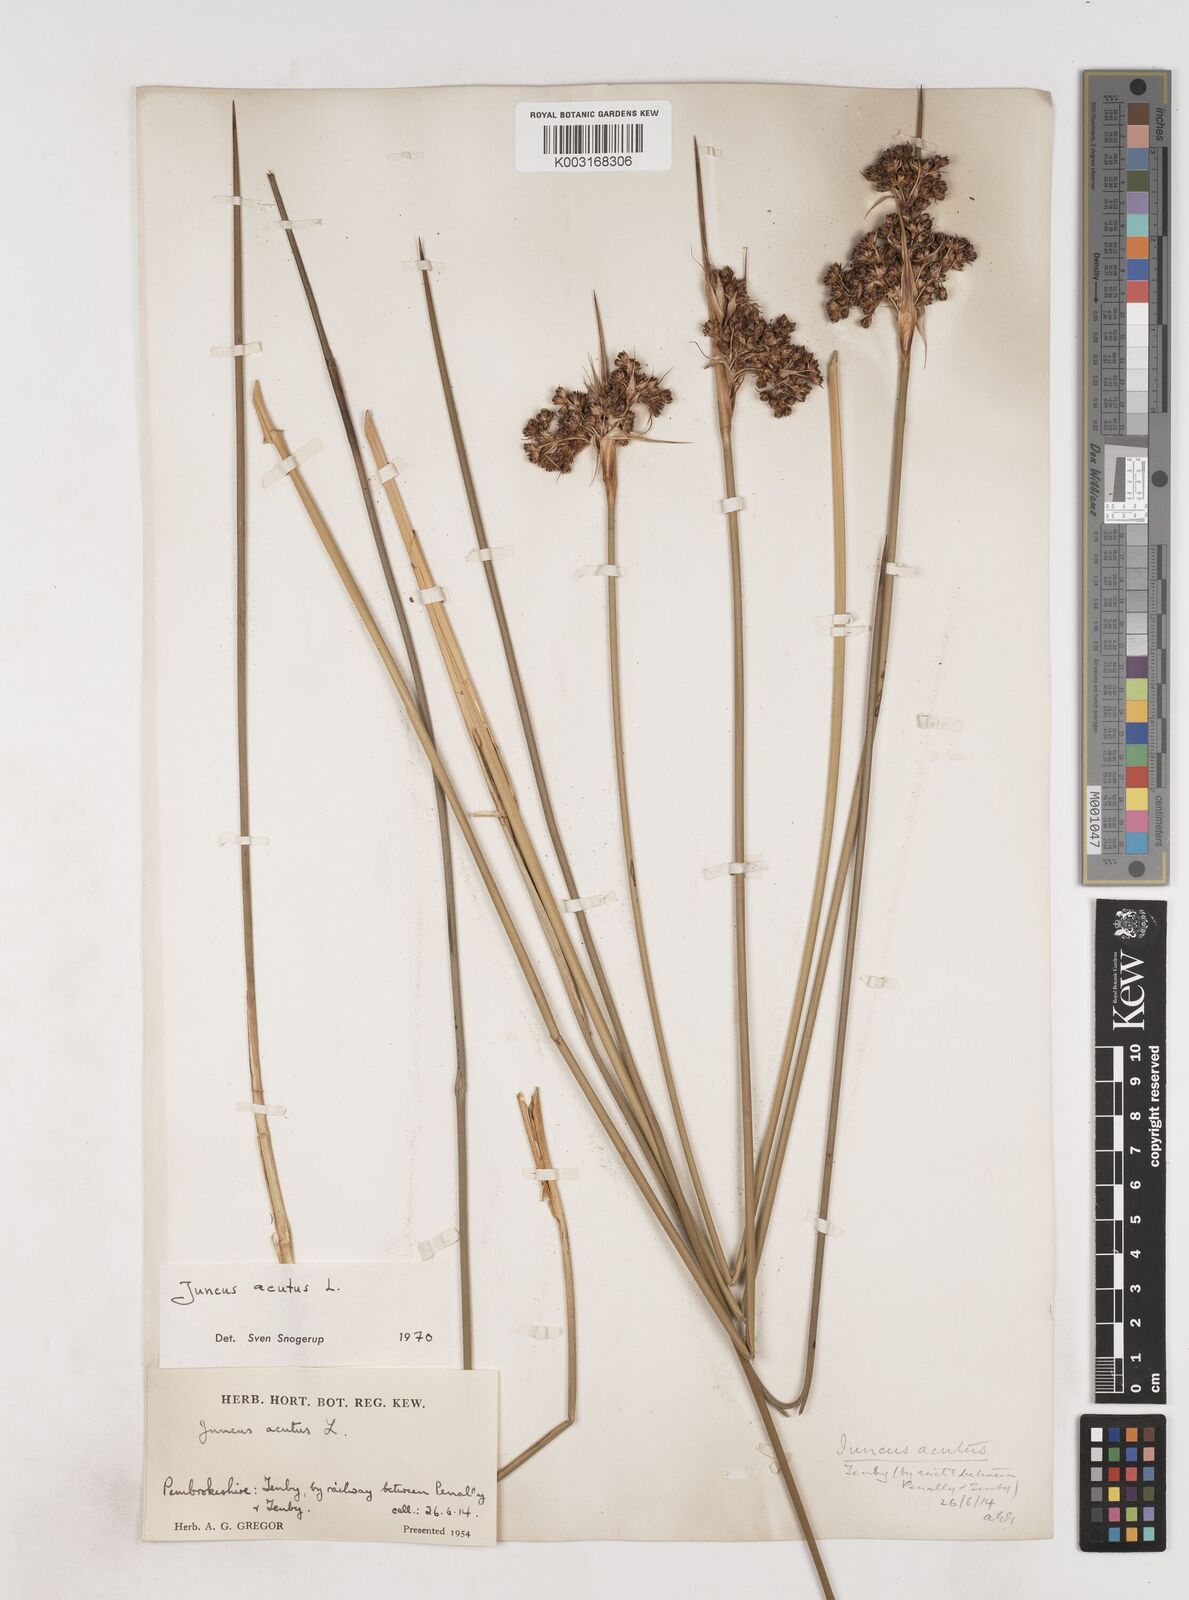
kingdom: Plantae
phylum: Tracheophyta
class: Liliopsida
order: Poales
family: Juncaceae
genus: Juncus
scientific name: Juncus acutus
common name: Sharp rush
